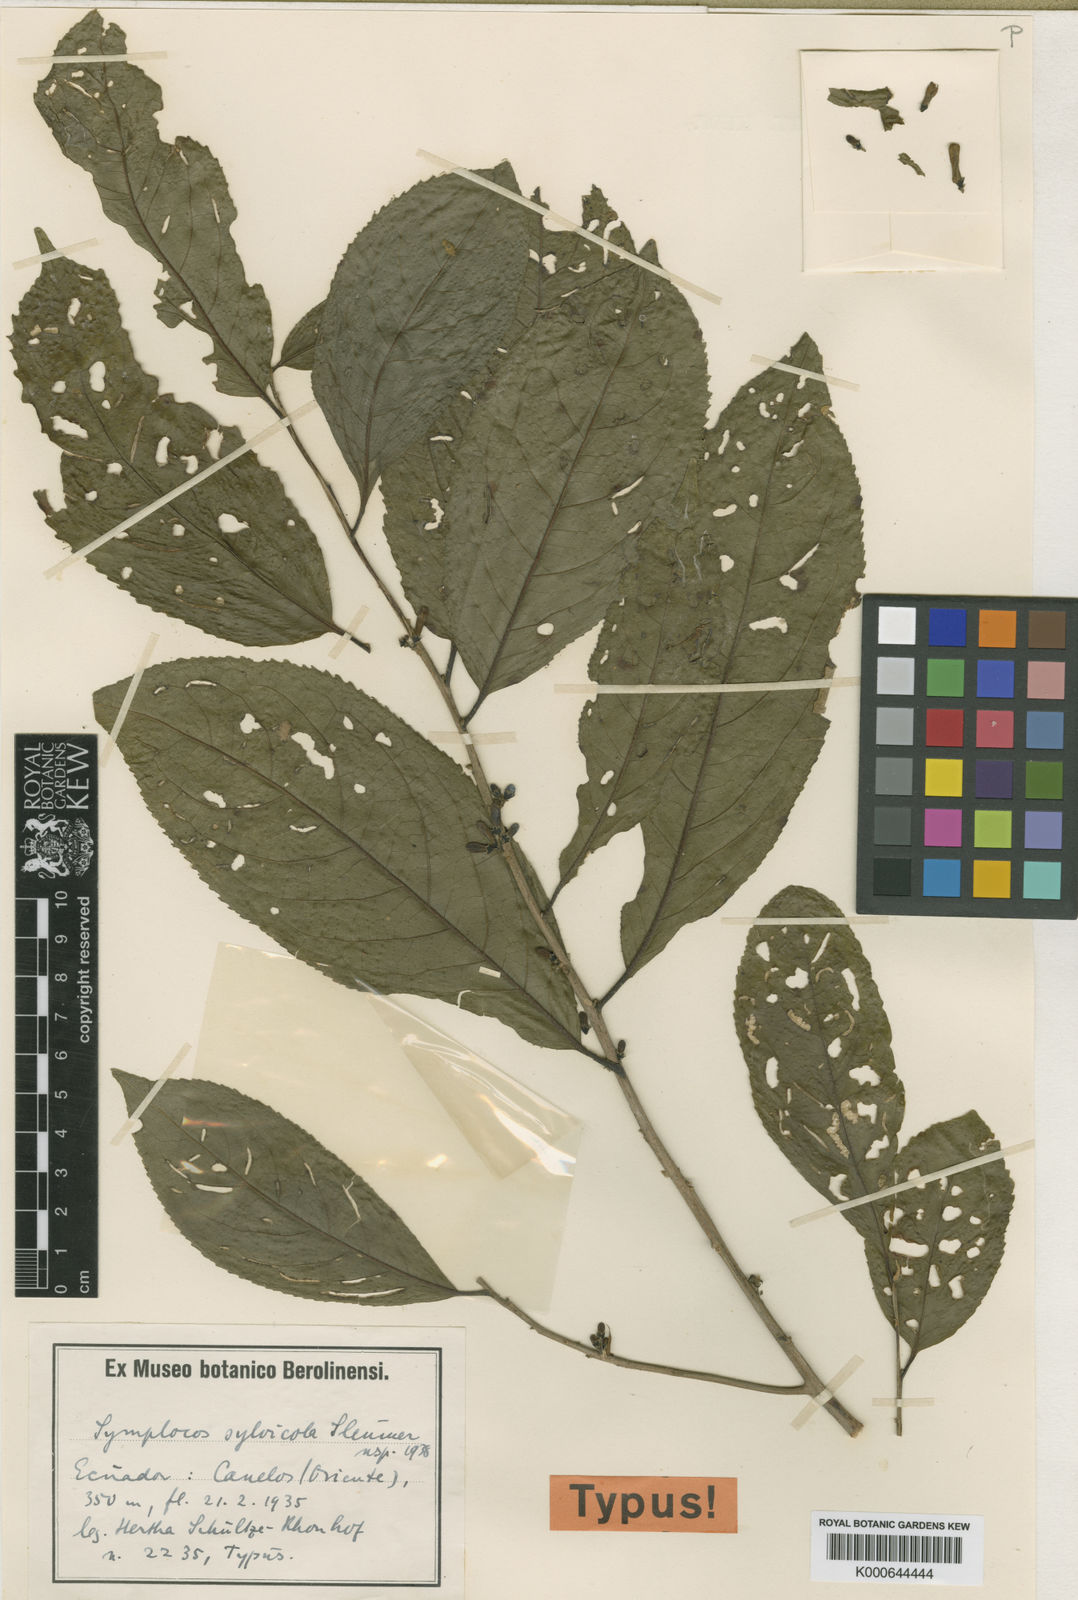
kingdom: Plantae
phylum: Tracheophyta
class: Magnoliopsida
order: Ericales
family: Symplocaceae
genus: Symplocos
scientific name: Symplocos
